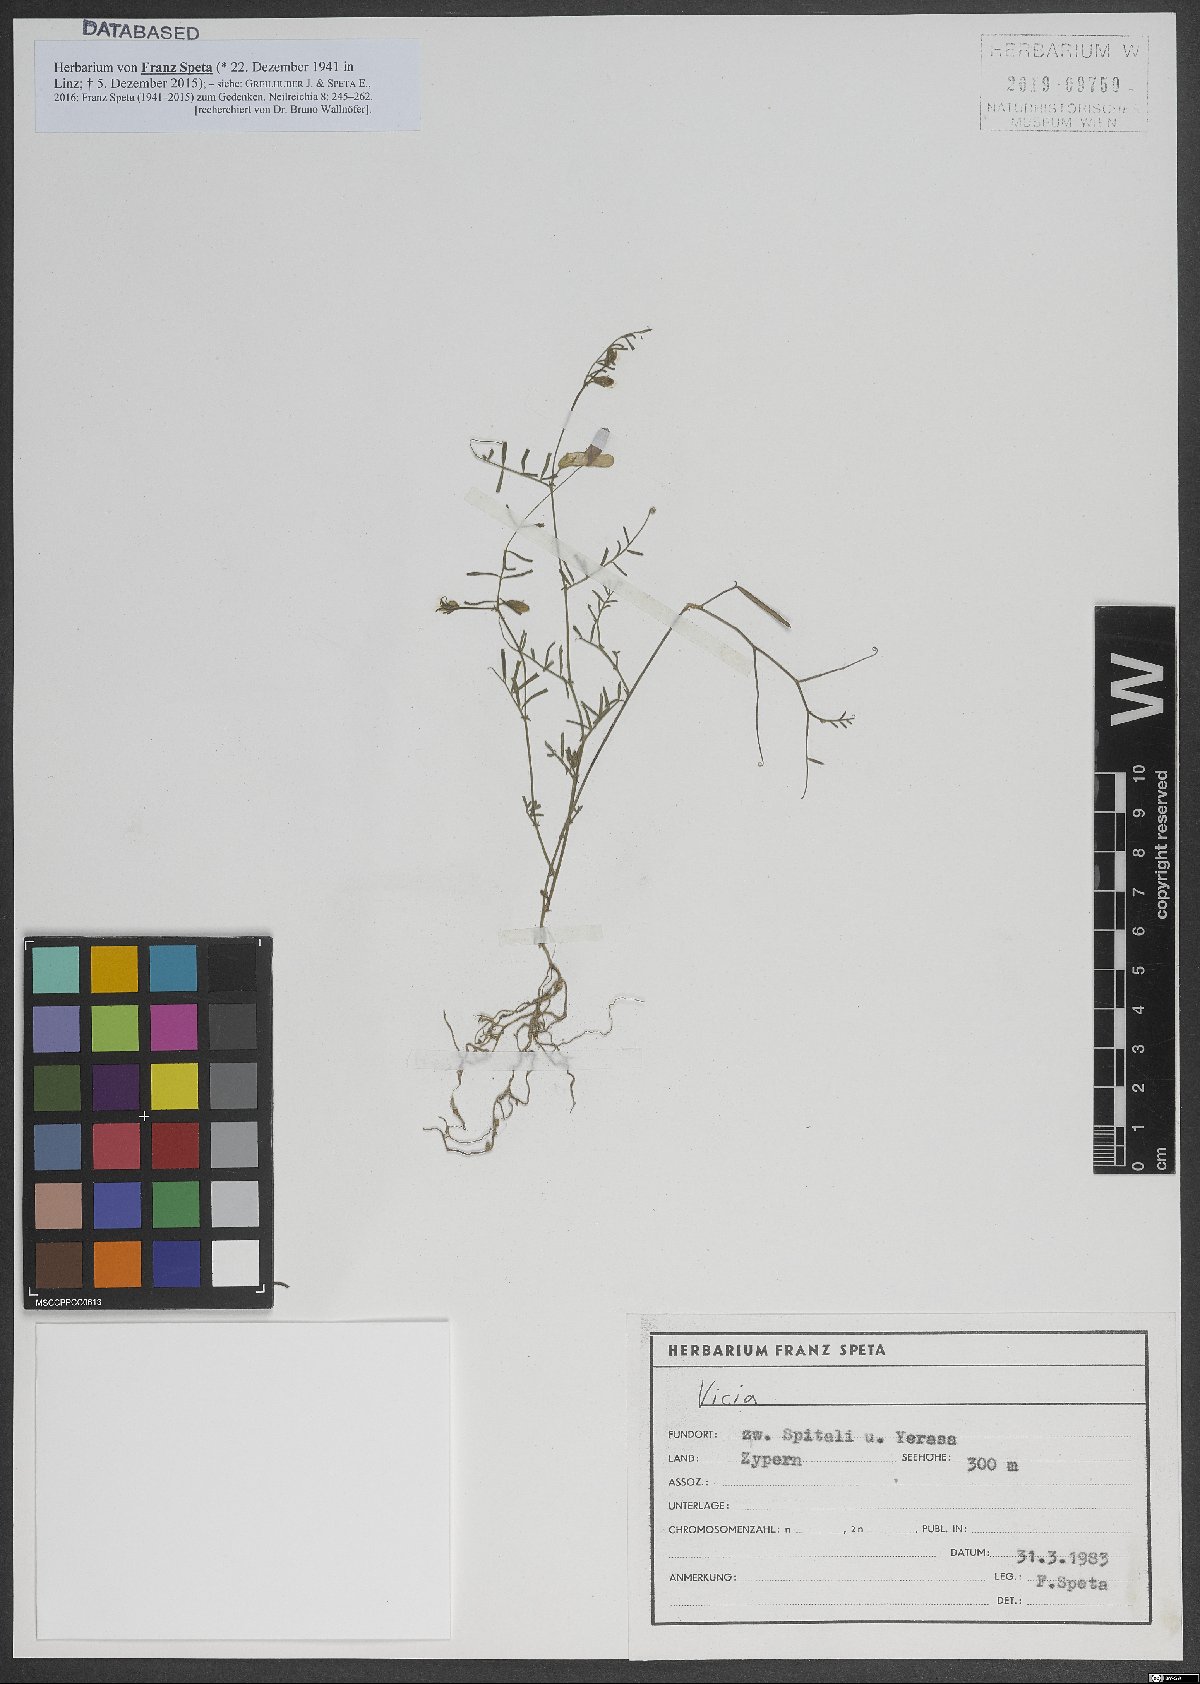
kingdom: Plantae
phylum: Tracheophyta
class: Magnoliopsida
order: Fabales
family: Fabaceae
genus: Vicia
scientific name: Vicia
